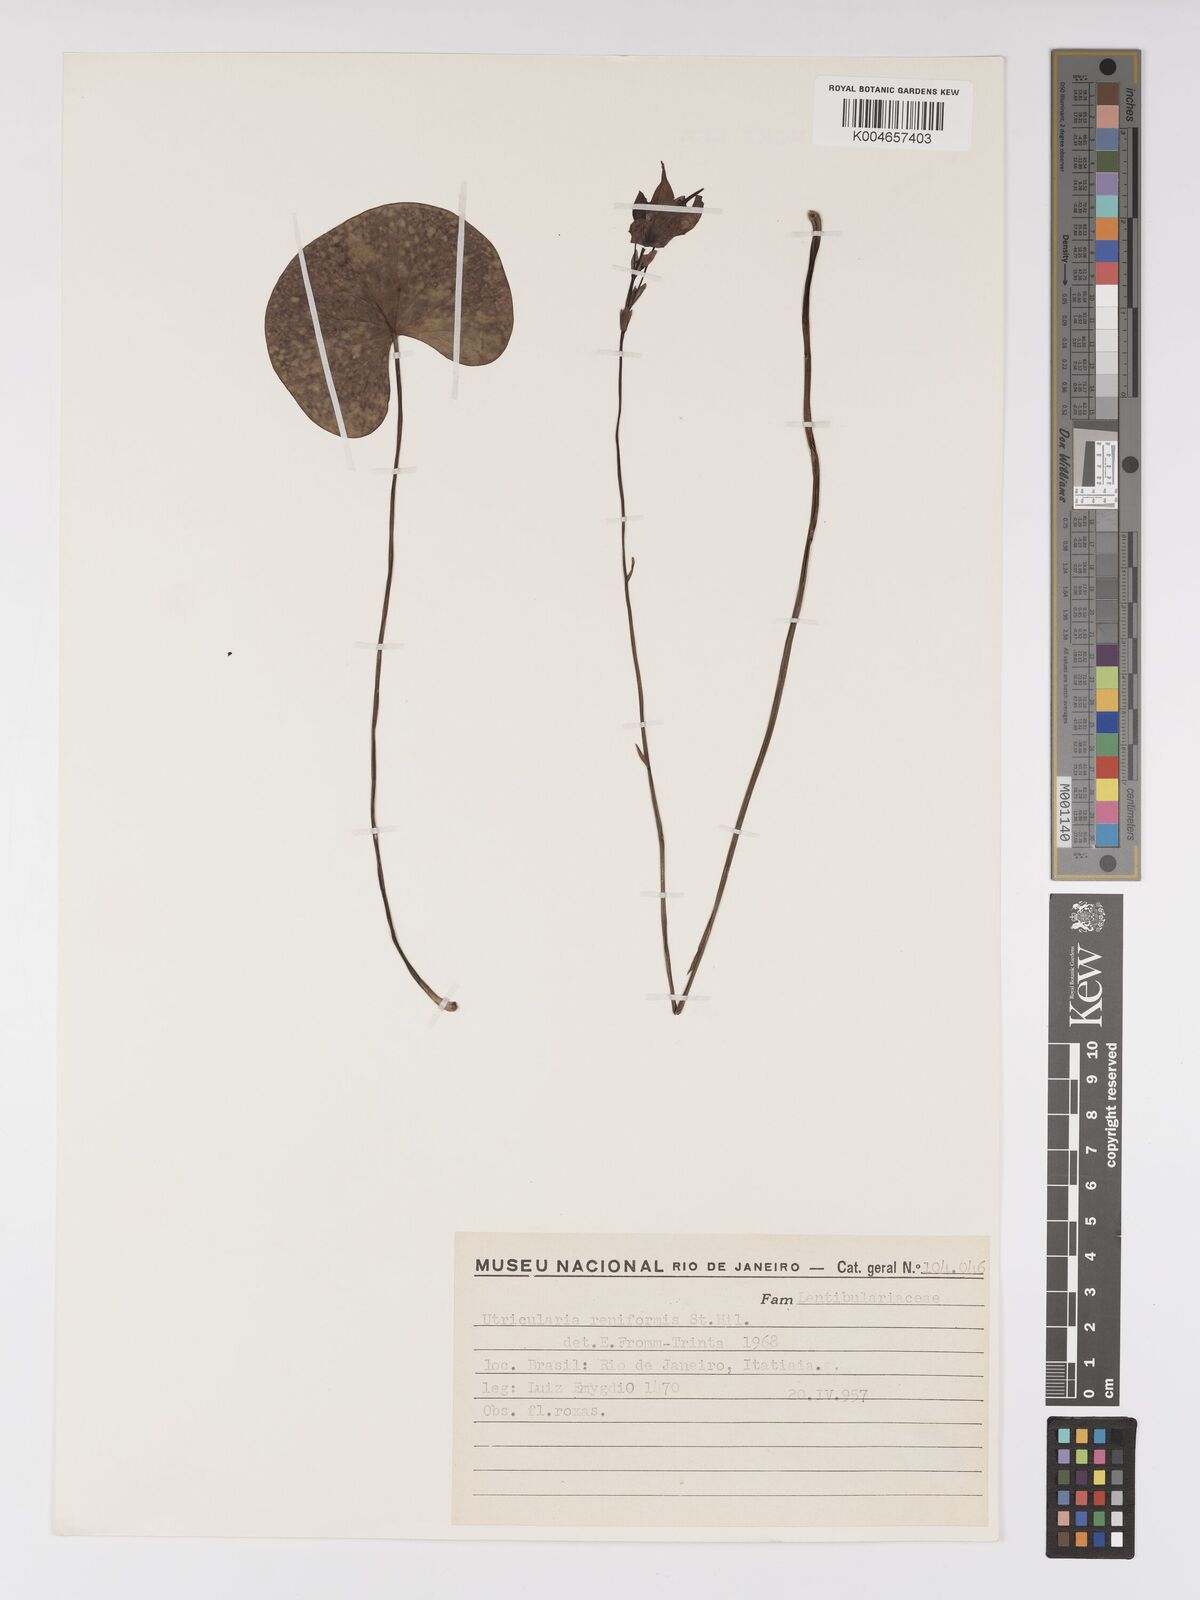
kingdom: Plantae
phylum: Tracheophyta
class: Magnoliopsida
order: Lamiales
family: Lentibulariaceae
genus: Utricularia
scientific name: Utricularia reniformis
